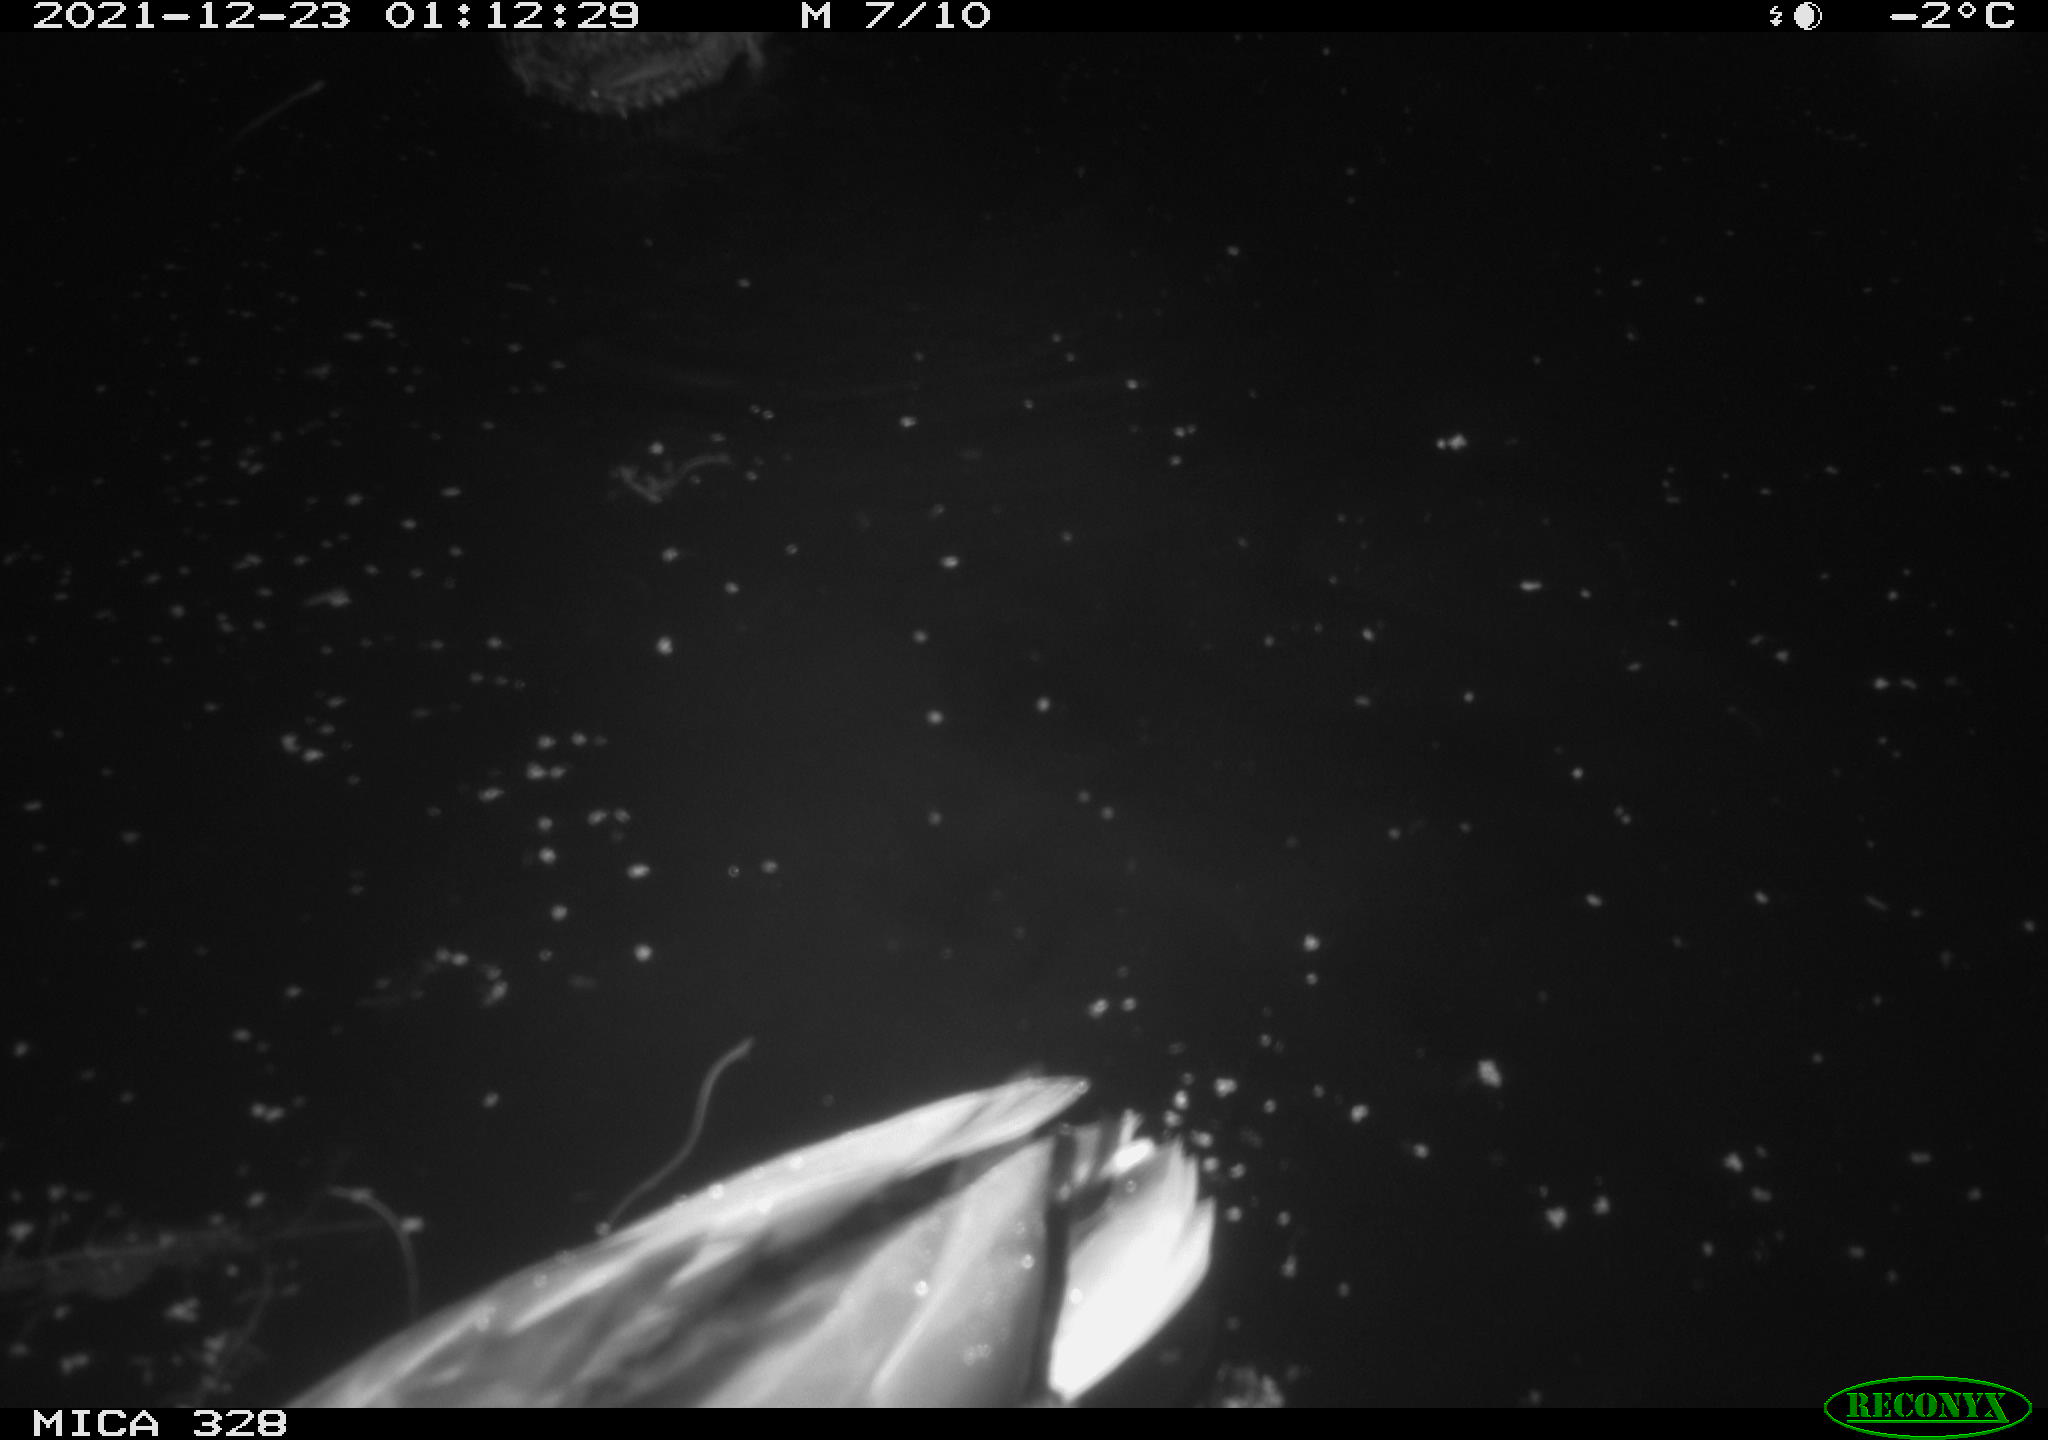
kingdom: Animalia
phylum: Chordata
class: Aves
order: Anseriformes
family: Anatidae
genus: Anas
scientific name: Anas platyrhynchos
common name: Mallard
